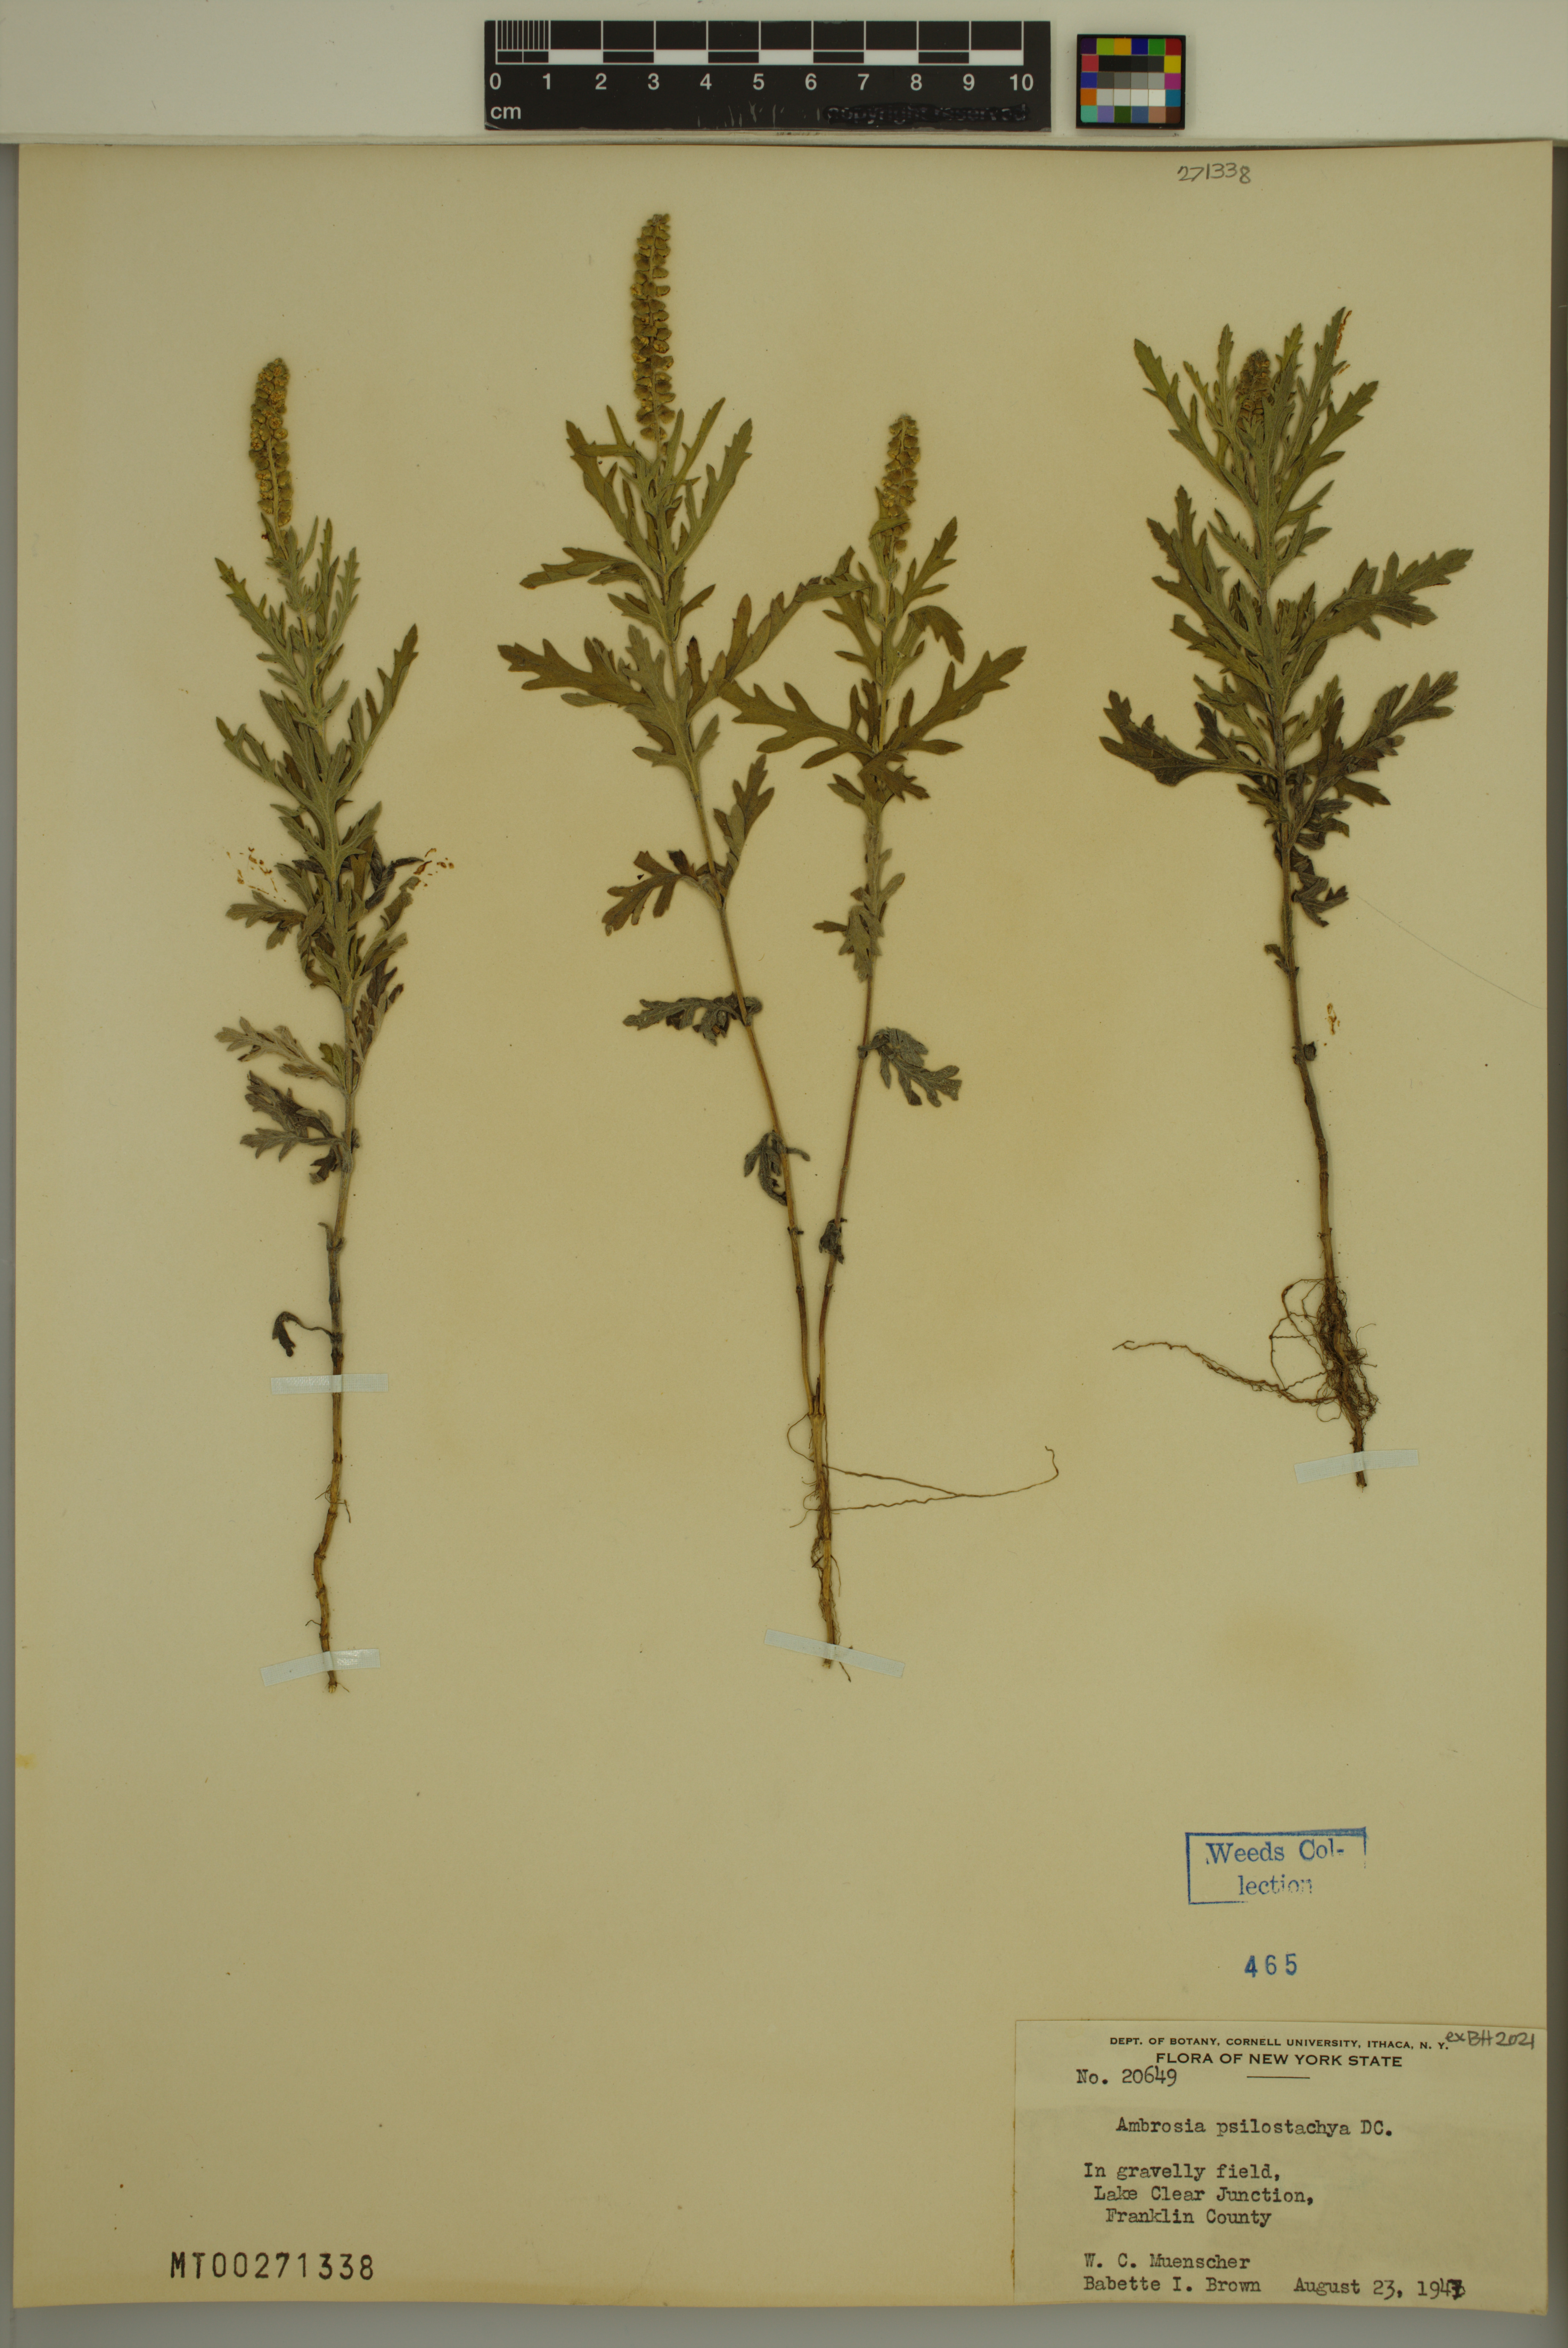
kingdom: Plantae
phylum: Tracheophyta
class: Magnoliopsida
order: Asterales
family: Asteraceae
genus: Ambrosia
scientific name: Ambrosia psilostachya
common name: Perennial ragweed
